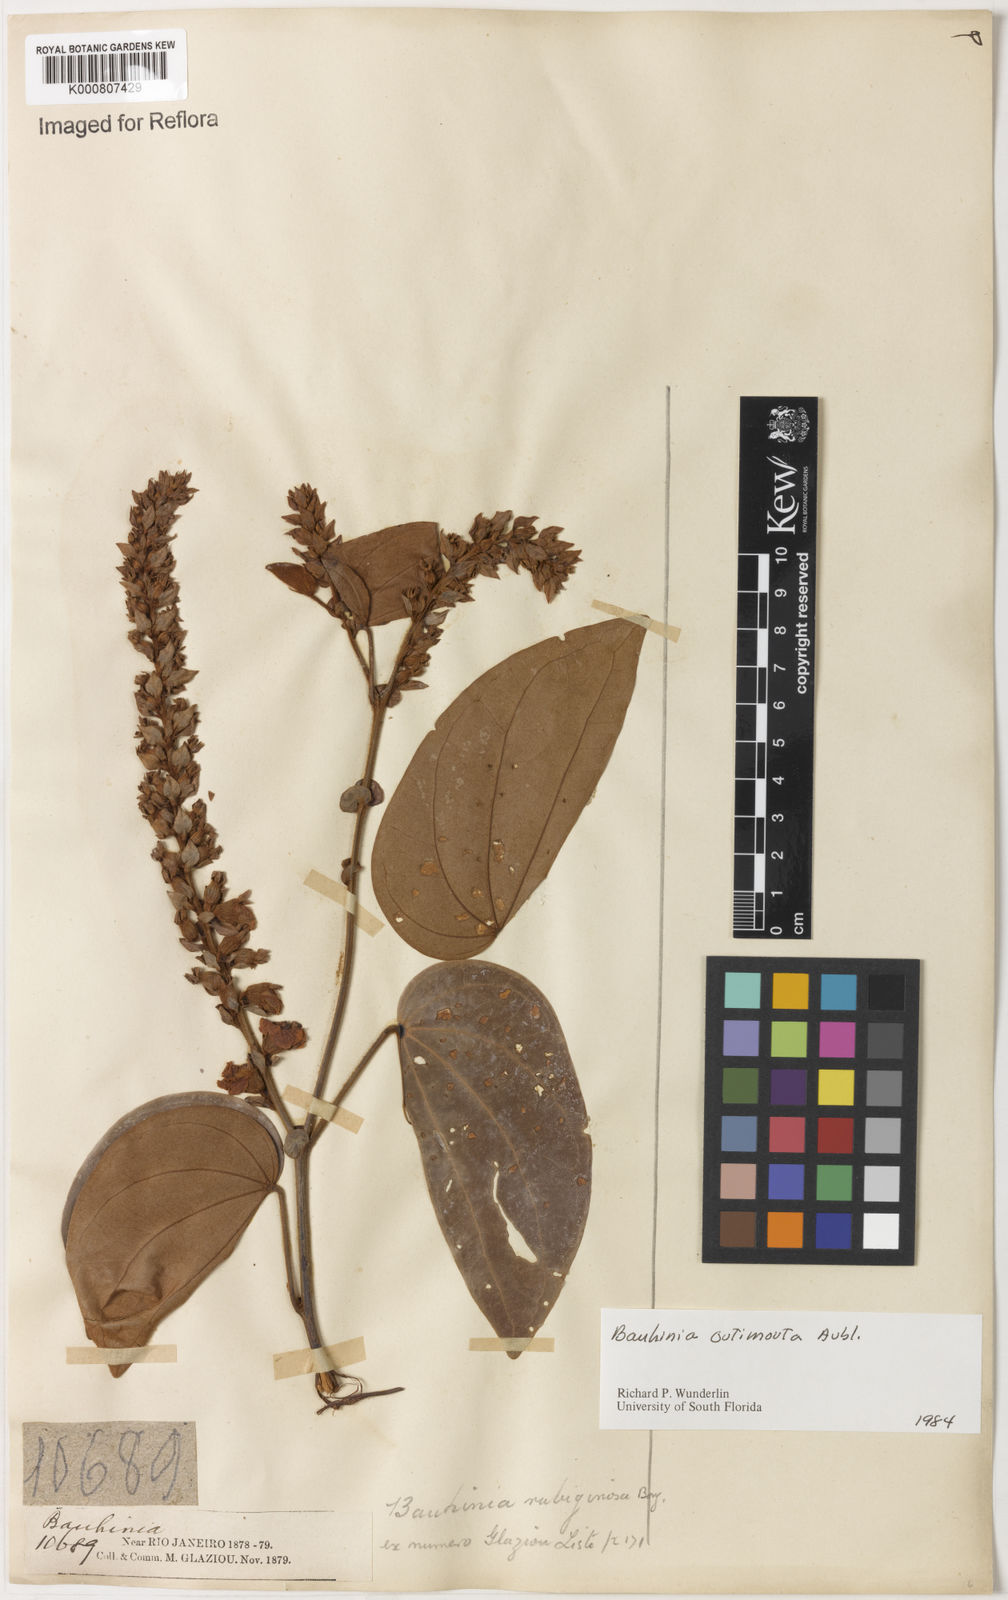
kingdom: Plantae
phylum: Tracheophyta
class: Magnoliopsida
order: Fabales
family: Fabaceae
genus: Schnella
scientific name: Schnella outimouta
